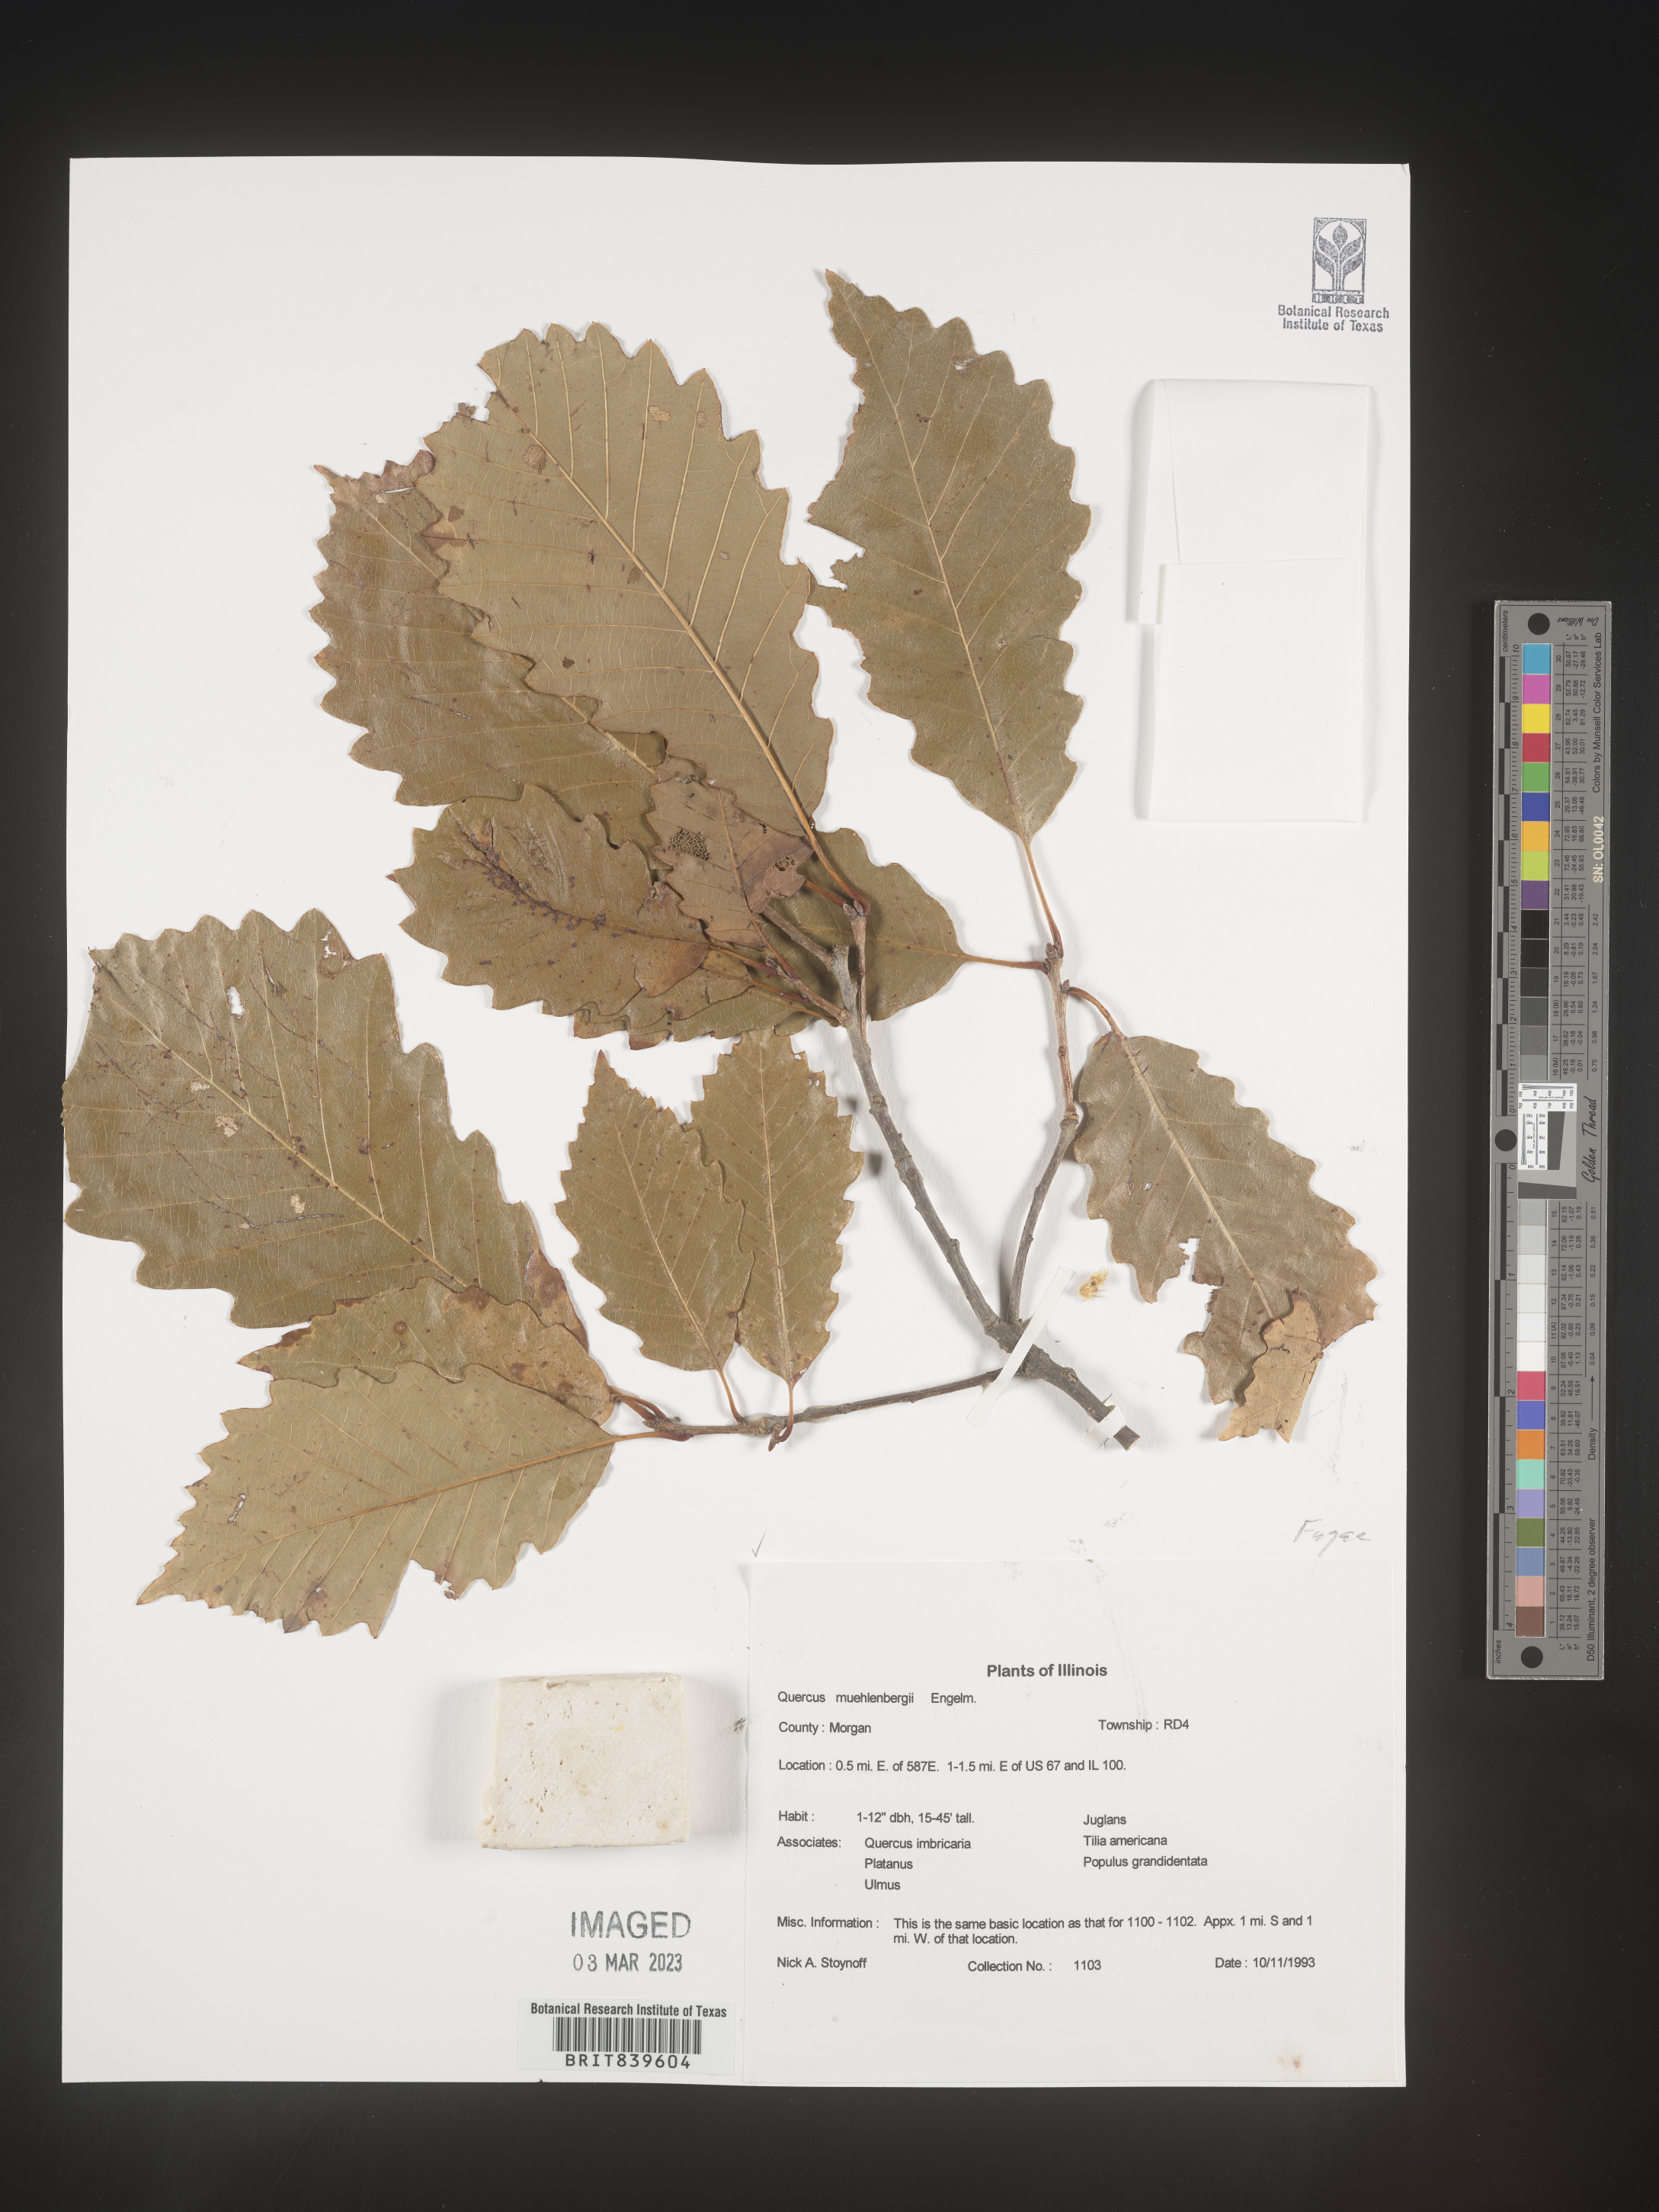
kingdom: Plantae
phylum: Tracheophyta
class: Magnoliopsida
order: Fagales
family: Fagaceae
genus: Quercus
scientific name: Quercus muehlenbergii
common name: Chinkapin oak
